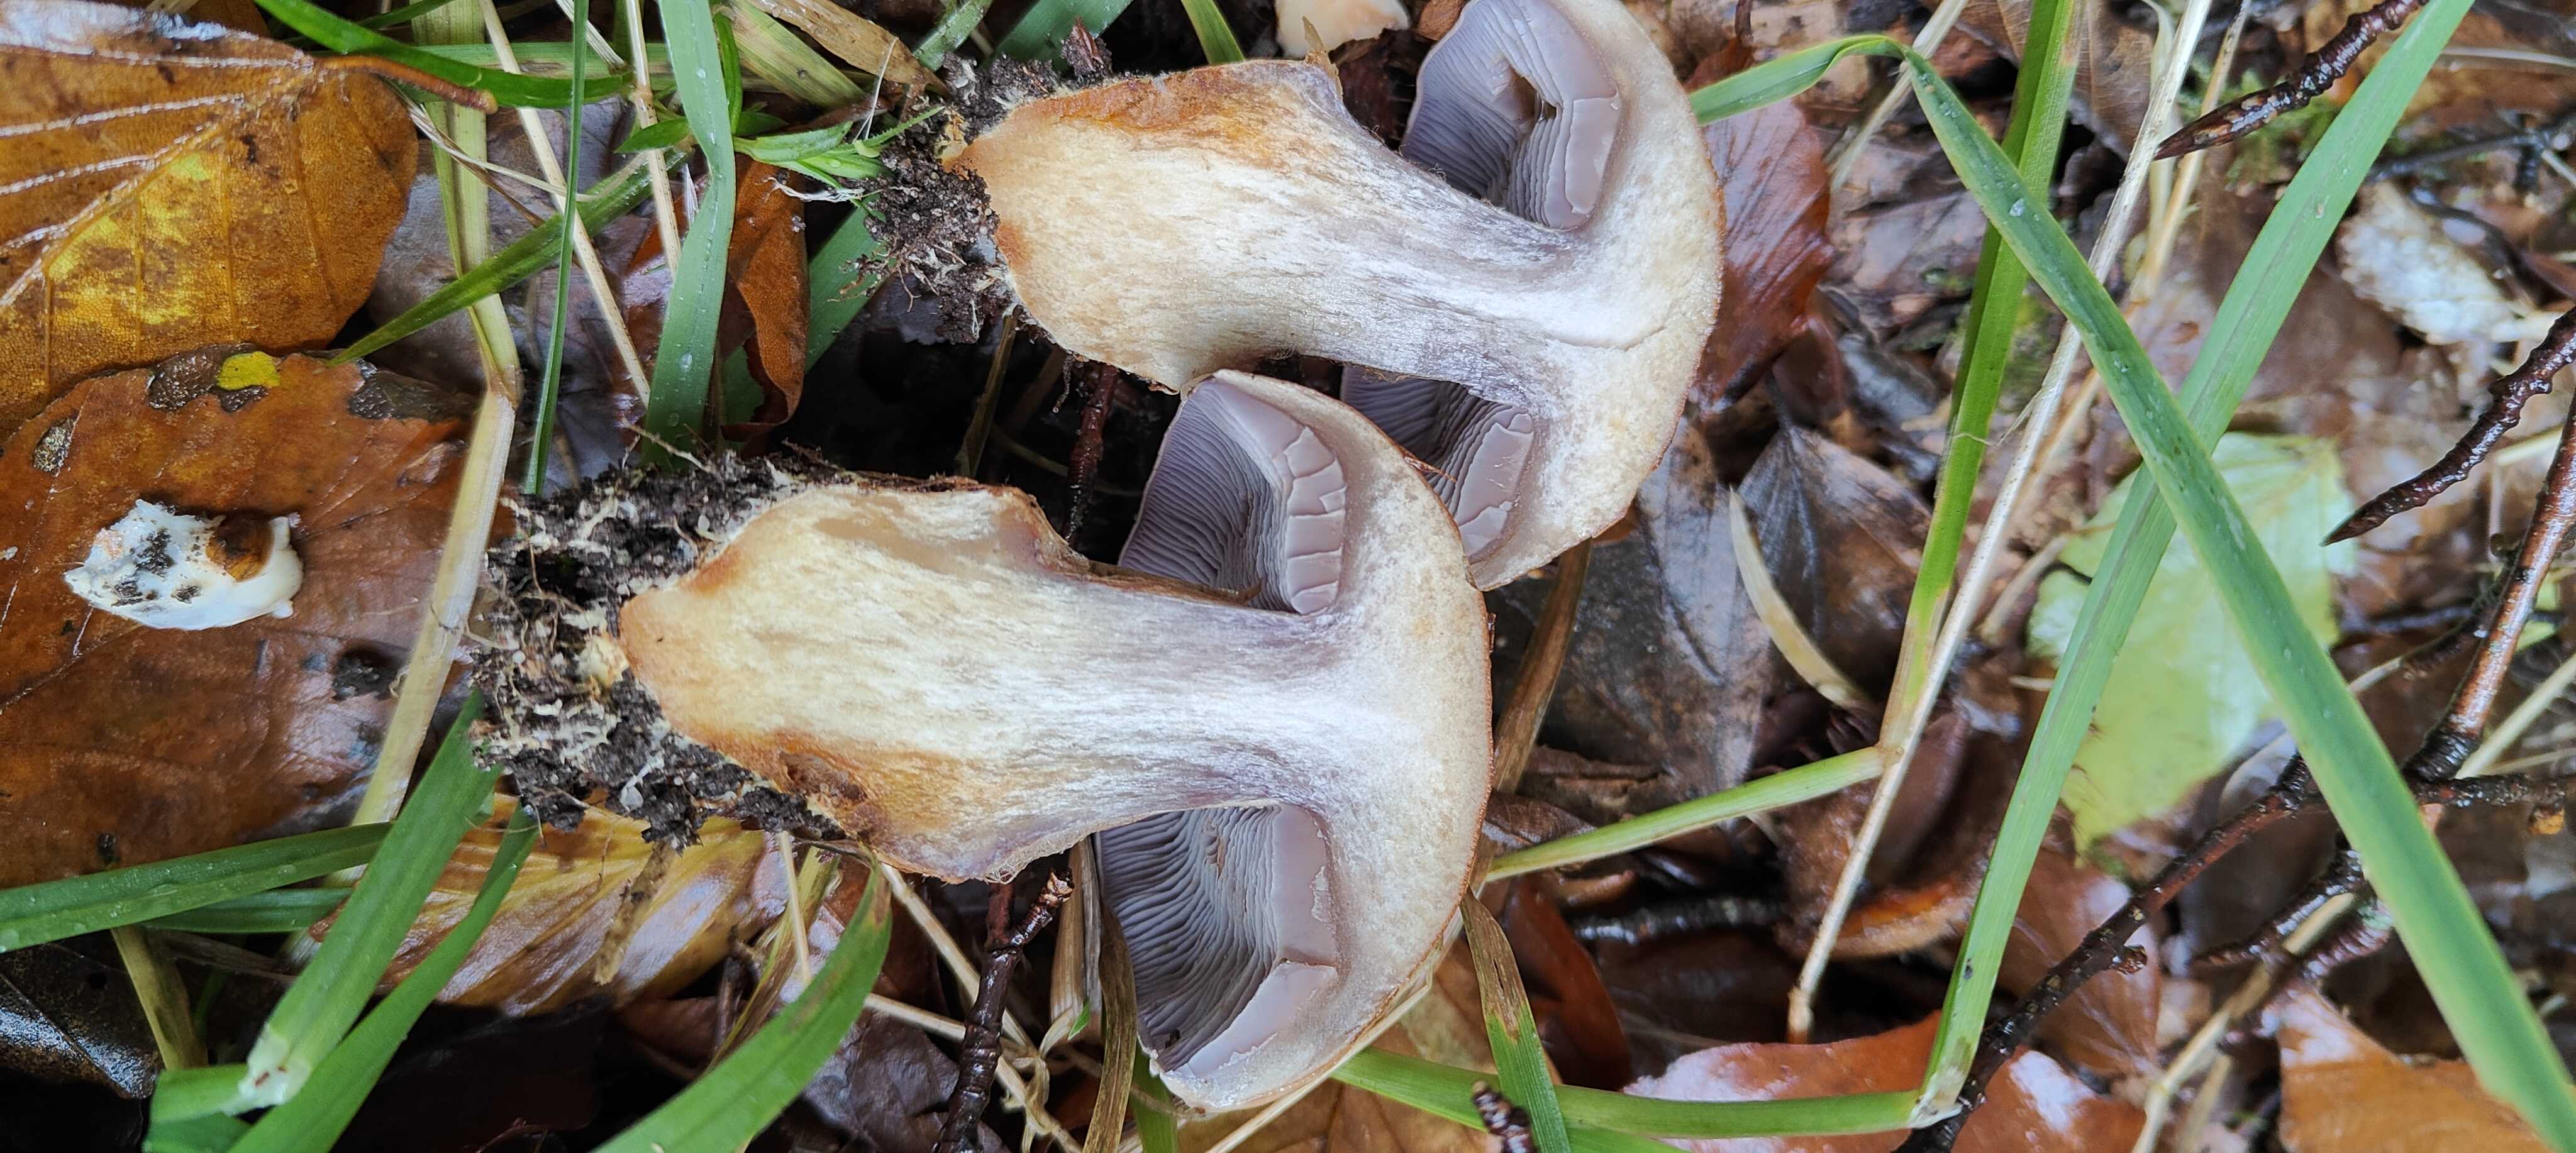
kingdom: Fungi
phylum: Basidiomycota
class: Agaricomycetes
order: Agaricales
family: Cortinariaceae
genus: Phlegmacium
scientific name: Phlegmacium luhmannii
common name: musegrå slørhat
